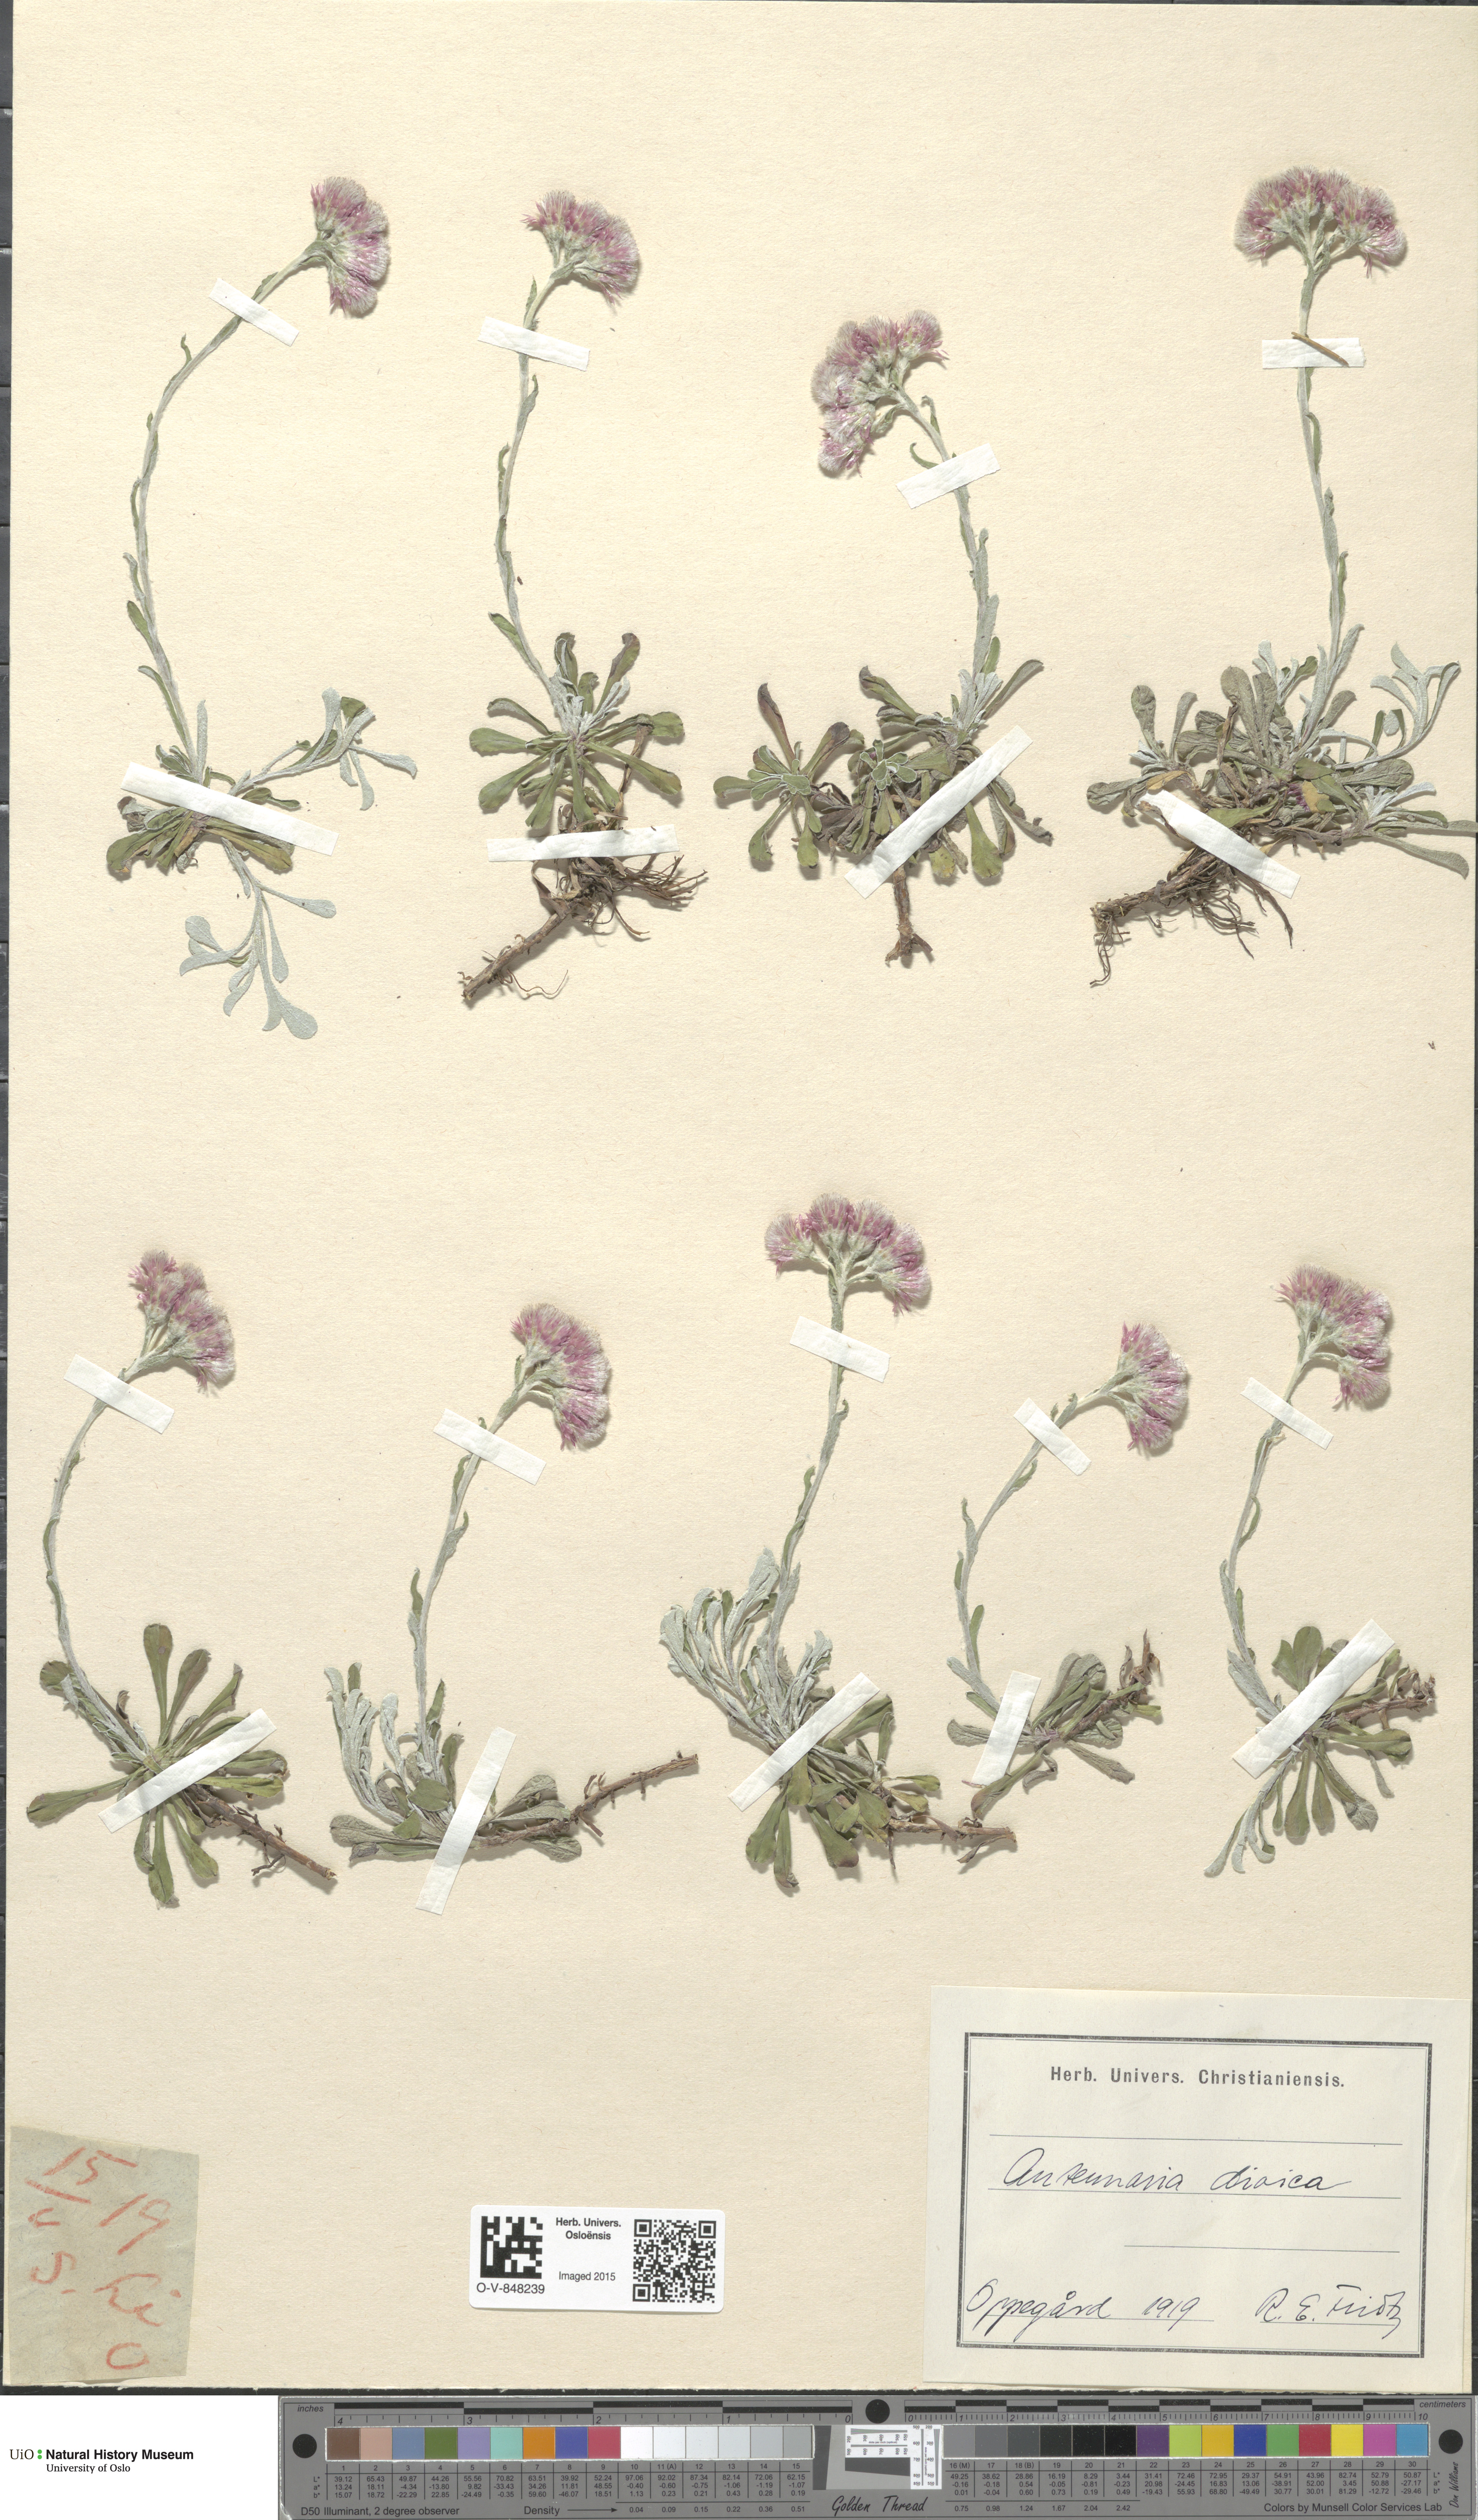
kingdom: Plantae
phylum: Tracheophyta
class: Magnoliopsida
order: Asterales
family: Asteraceae
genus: Antennaria
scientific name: Antennaria dioica
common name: Mountain everlasting
